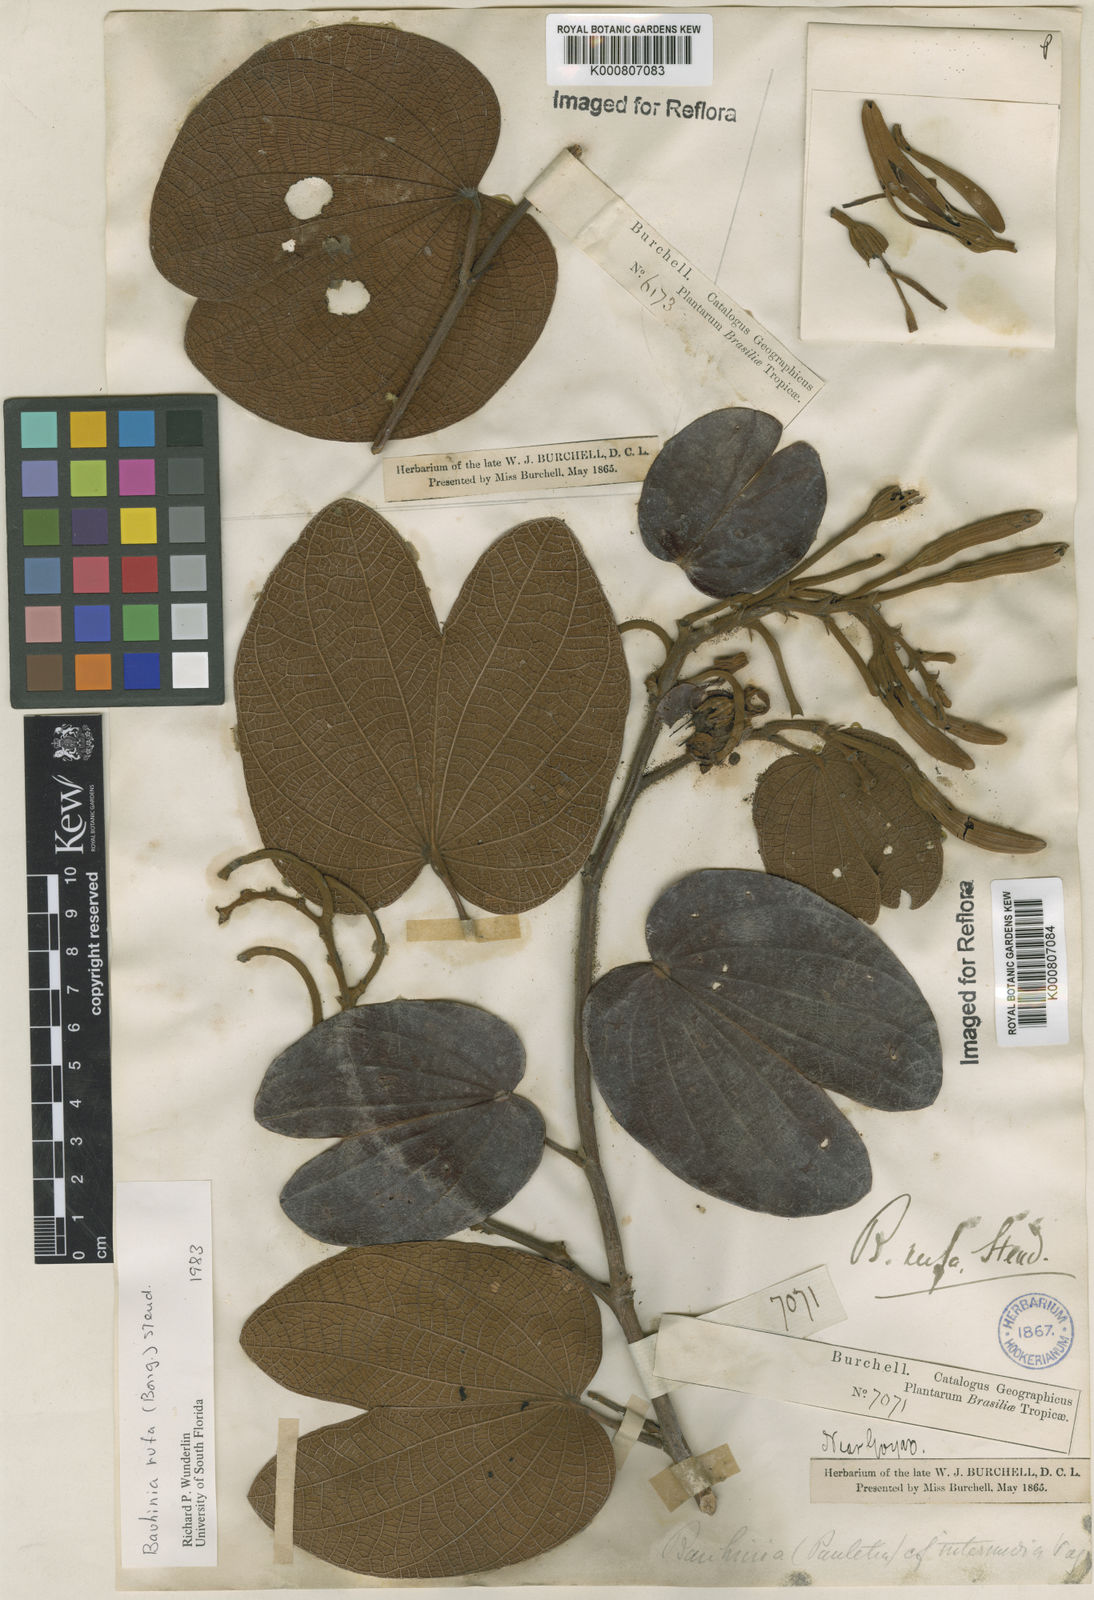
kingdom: Plantae
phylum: Tracheophyta
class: Magnoliopsida
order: Fabales
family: Fabaceae
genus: Bauhinia
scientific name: Bauhinia rufa
